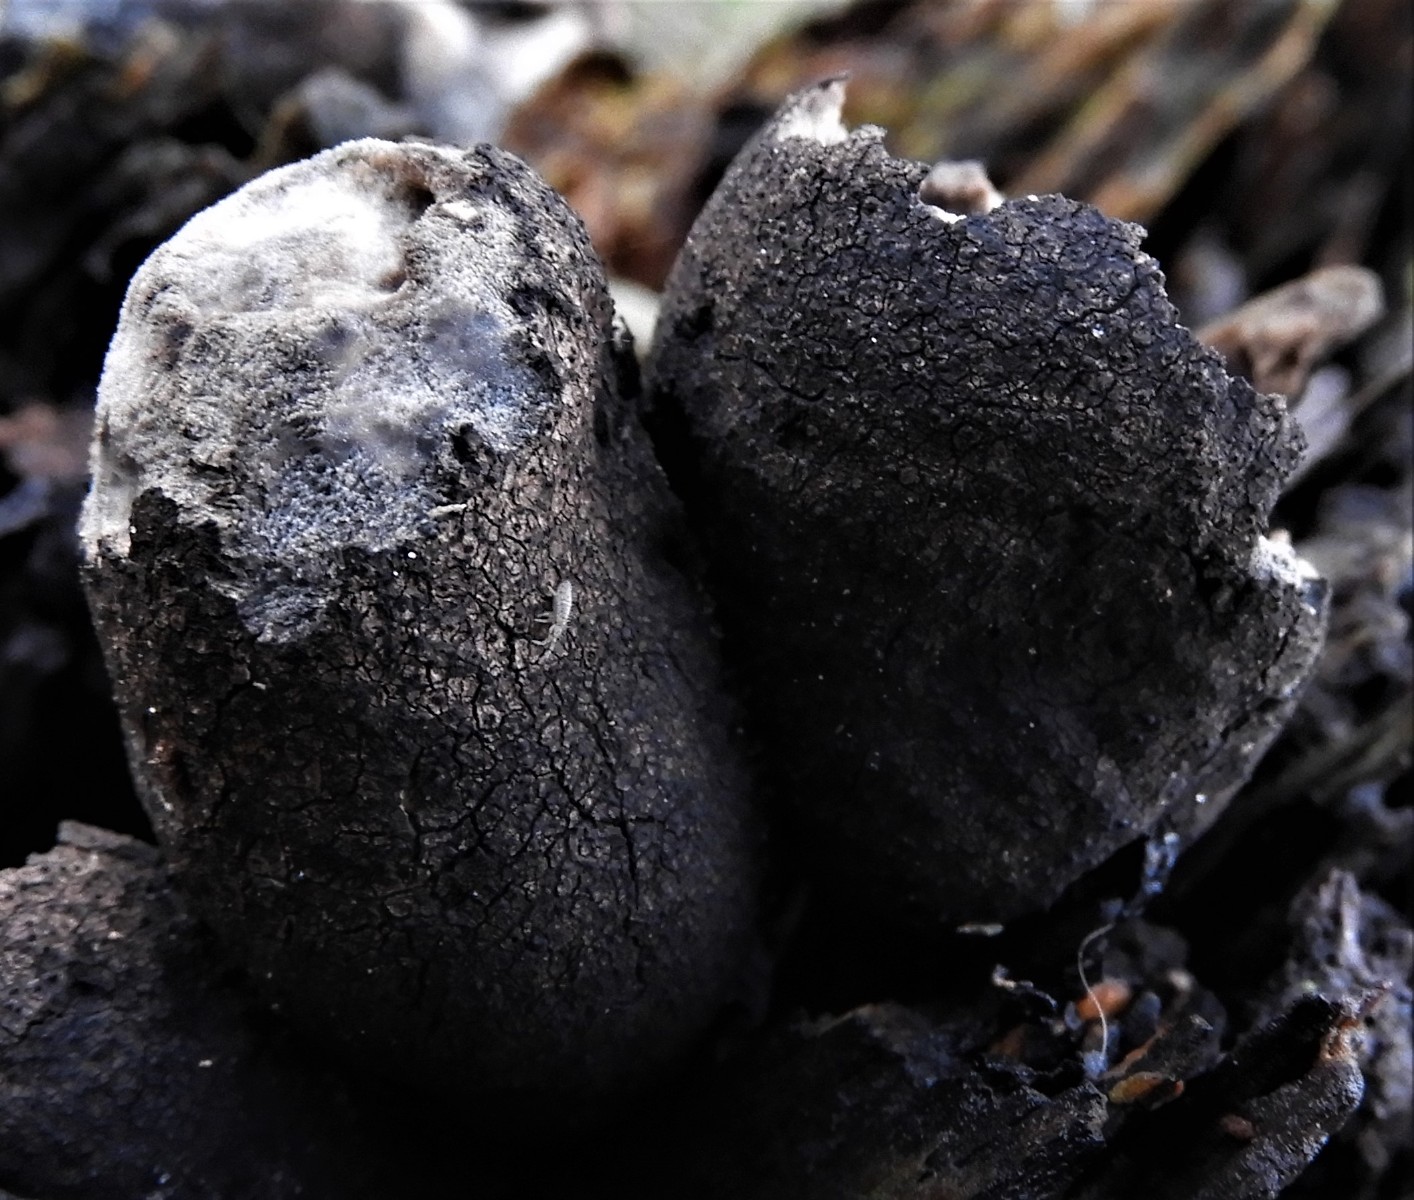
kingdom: Fungi
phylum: Ascomycota
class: Sordariomycetes
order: Xylariales
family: Xylariaceae
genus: Xylaria
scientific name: Xylaria polymorpha
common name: kølle-stødsvamp
